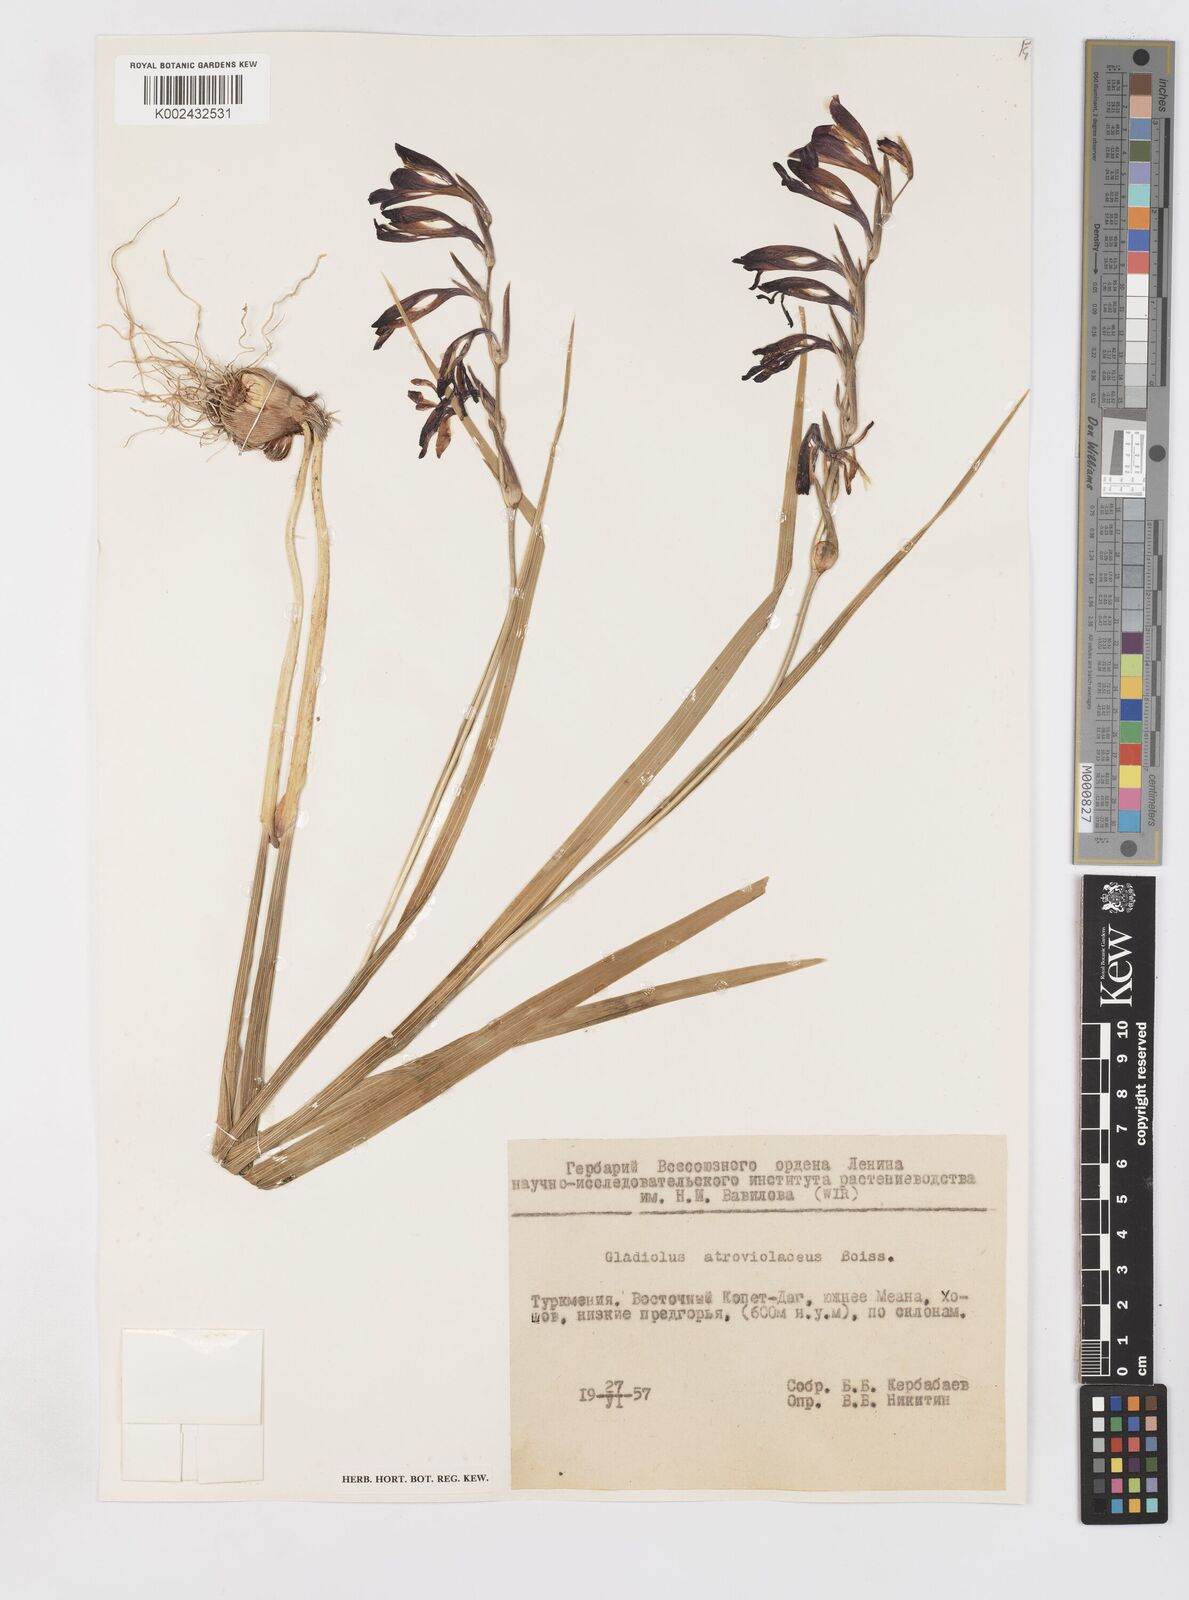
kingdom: Plantae
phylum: Tracheophyta
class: Liliopsida
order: Asparagales
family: Iridaceae
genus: Gladiolus
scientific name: Gladiolus atroviolaceus
